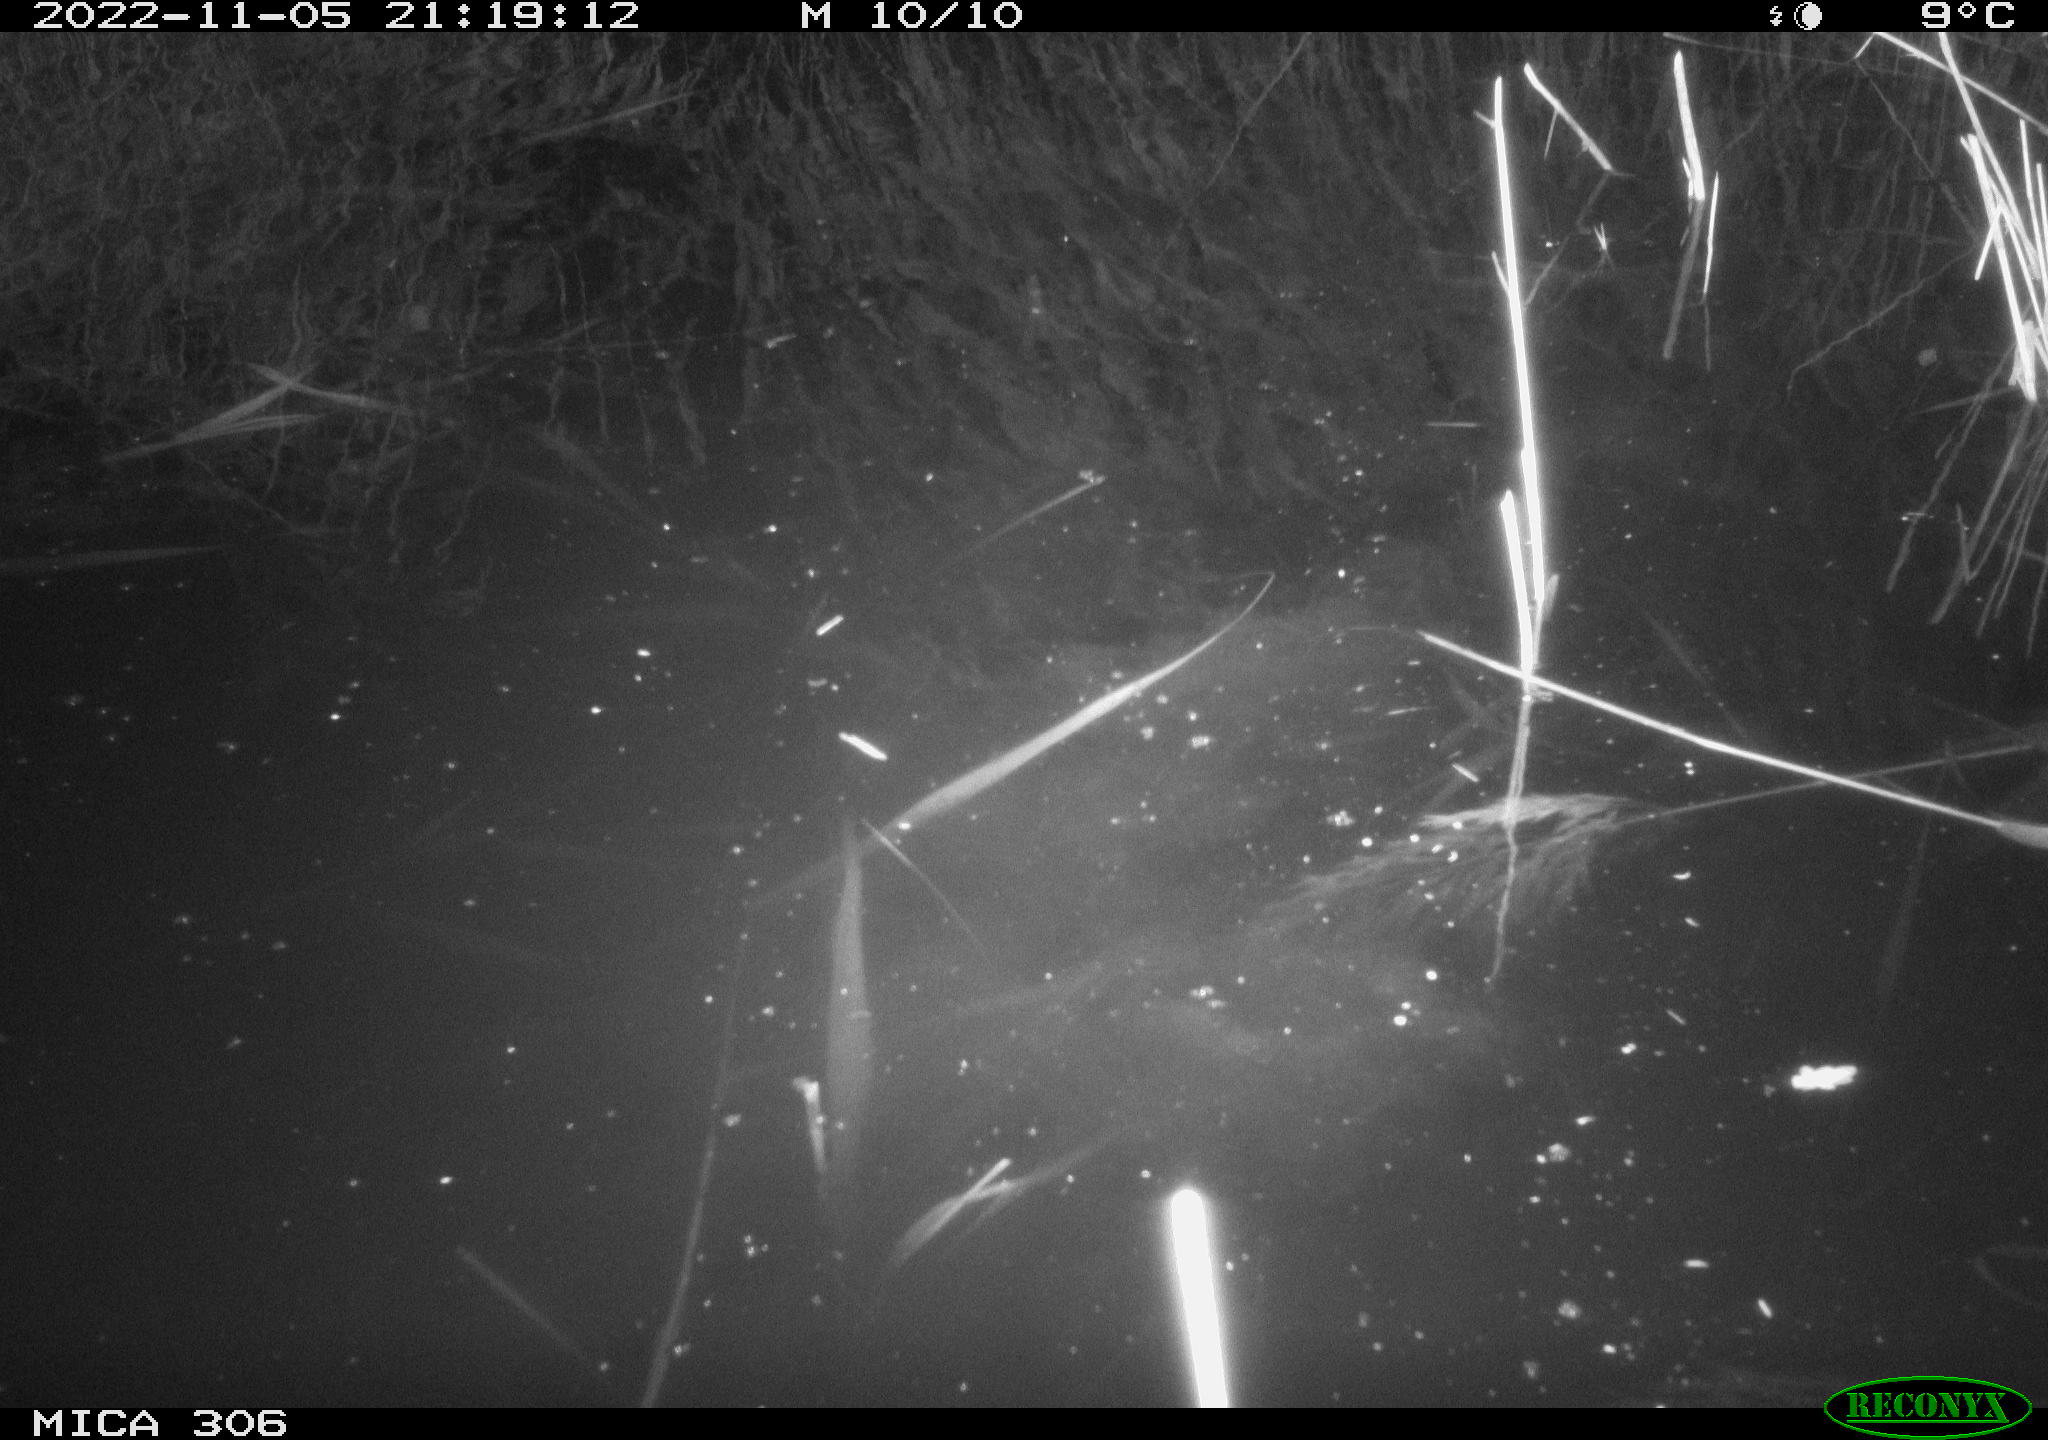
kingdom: Animalia
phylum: Chordata
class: Mammalia
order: Rodentia
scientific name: Rodentia
